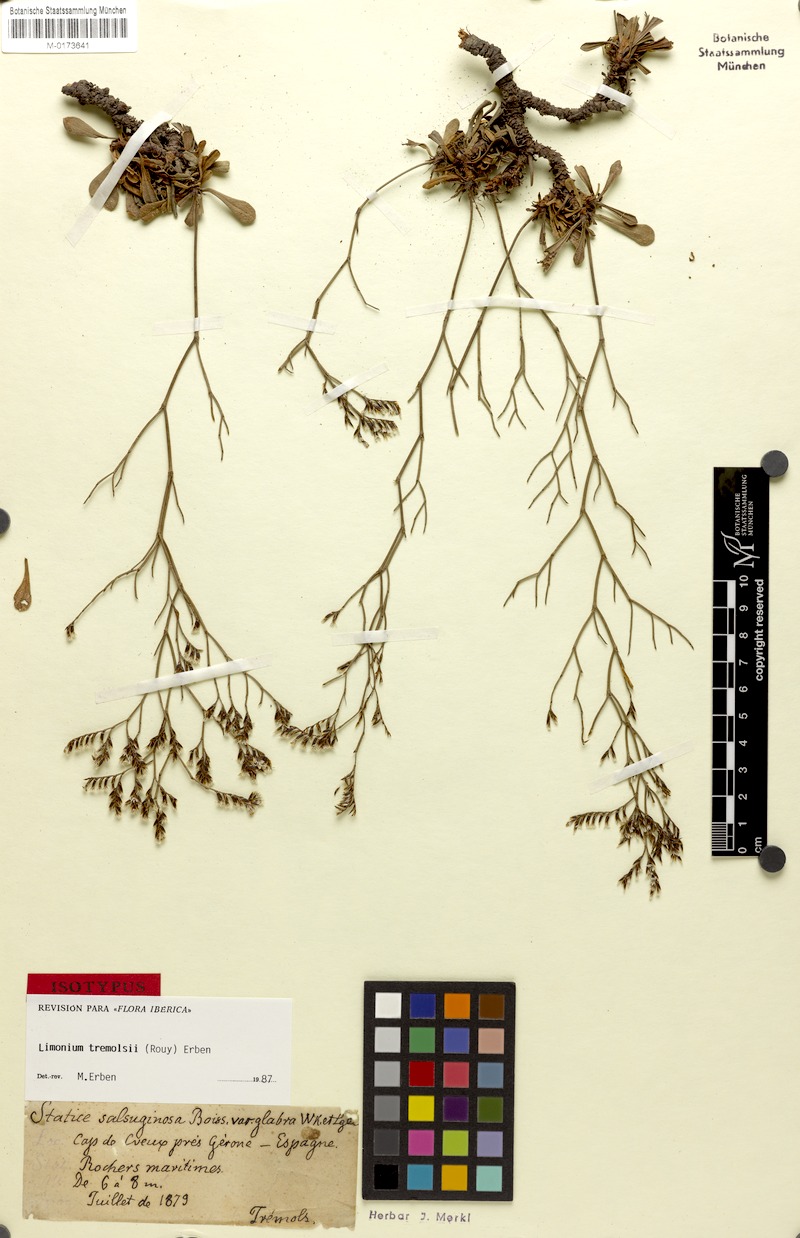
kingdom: Plantae
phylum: Tracheophyta
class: Magnoliopsida
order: Caryophyllales
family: Plumbaginaceae
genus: Limonium
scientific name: Limonium tremolsii
